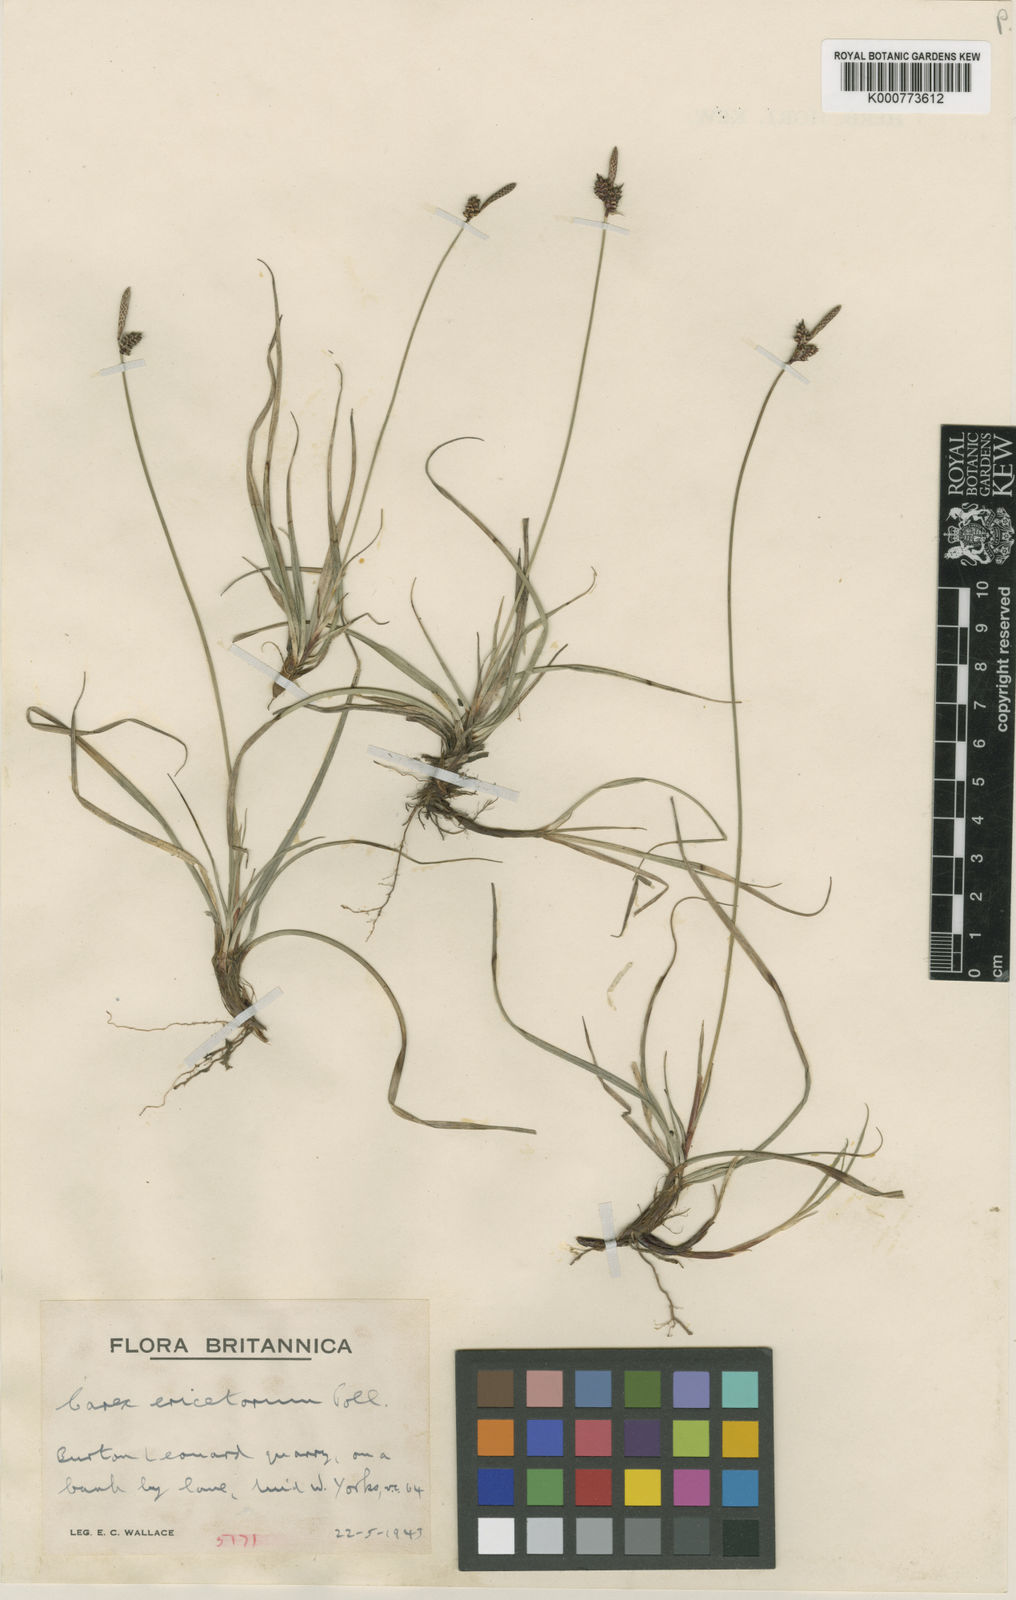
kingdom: Plantae
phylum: Tracheophyta
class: Liliopsida
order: Poales
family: Cyperaceae
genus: Carex
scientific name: Carex ericetorum
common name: Rare spring-sedge
